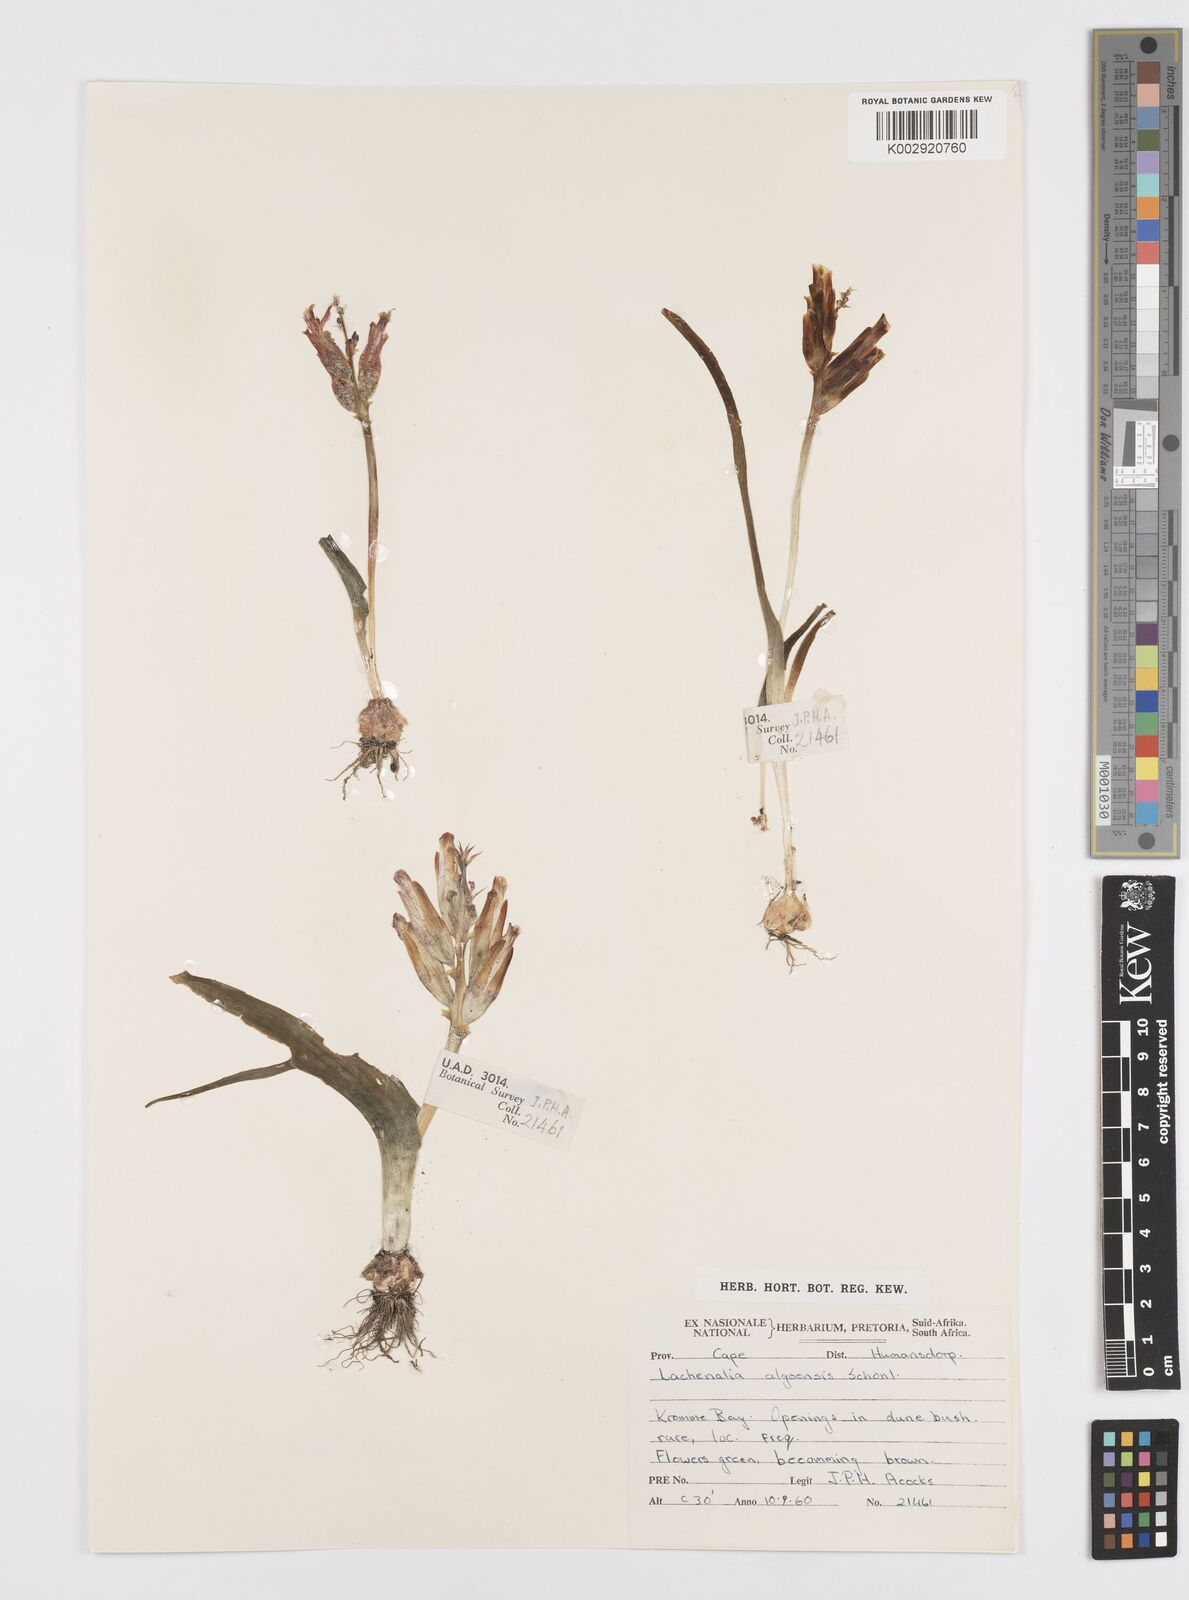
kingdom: Plantae
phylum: Tracheophyta
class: Liliopsida
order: Asparagales
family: Asparagaceae
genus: Lachenalia
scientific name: Lachenalia algoensis
